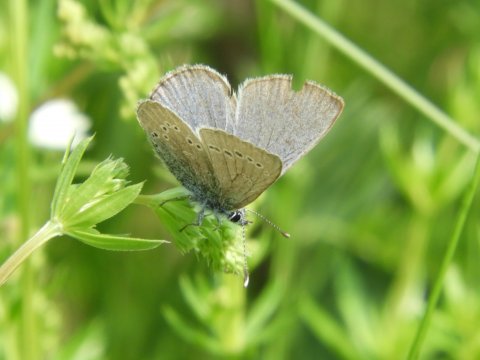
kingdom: Animalia
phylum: Arthropoda
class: Insecta
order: Lepidoptera
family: Lycaenidae
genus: Glaucopsyche
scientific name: Glaucopsyche lygdamus
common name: Silvery Blue
